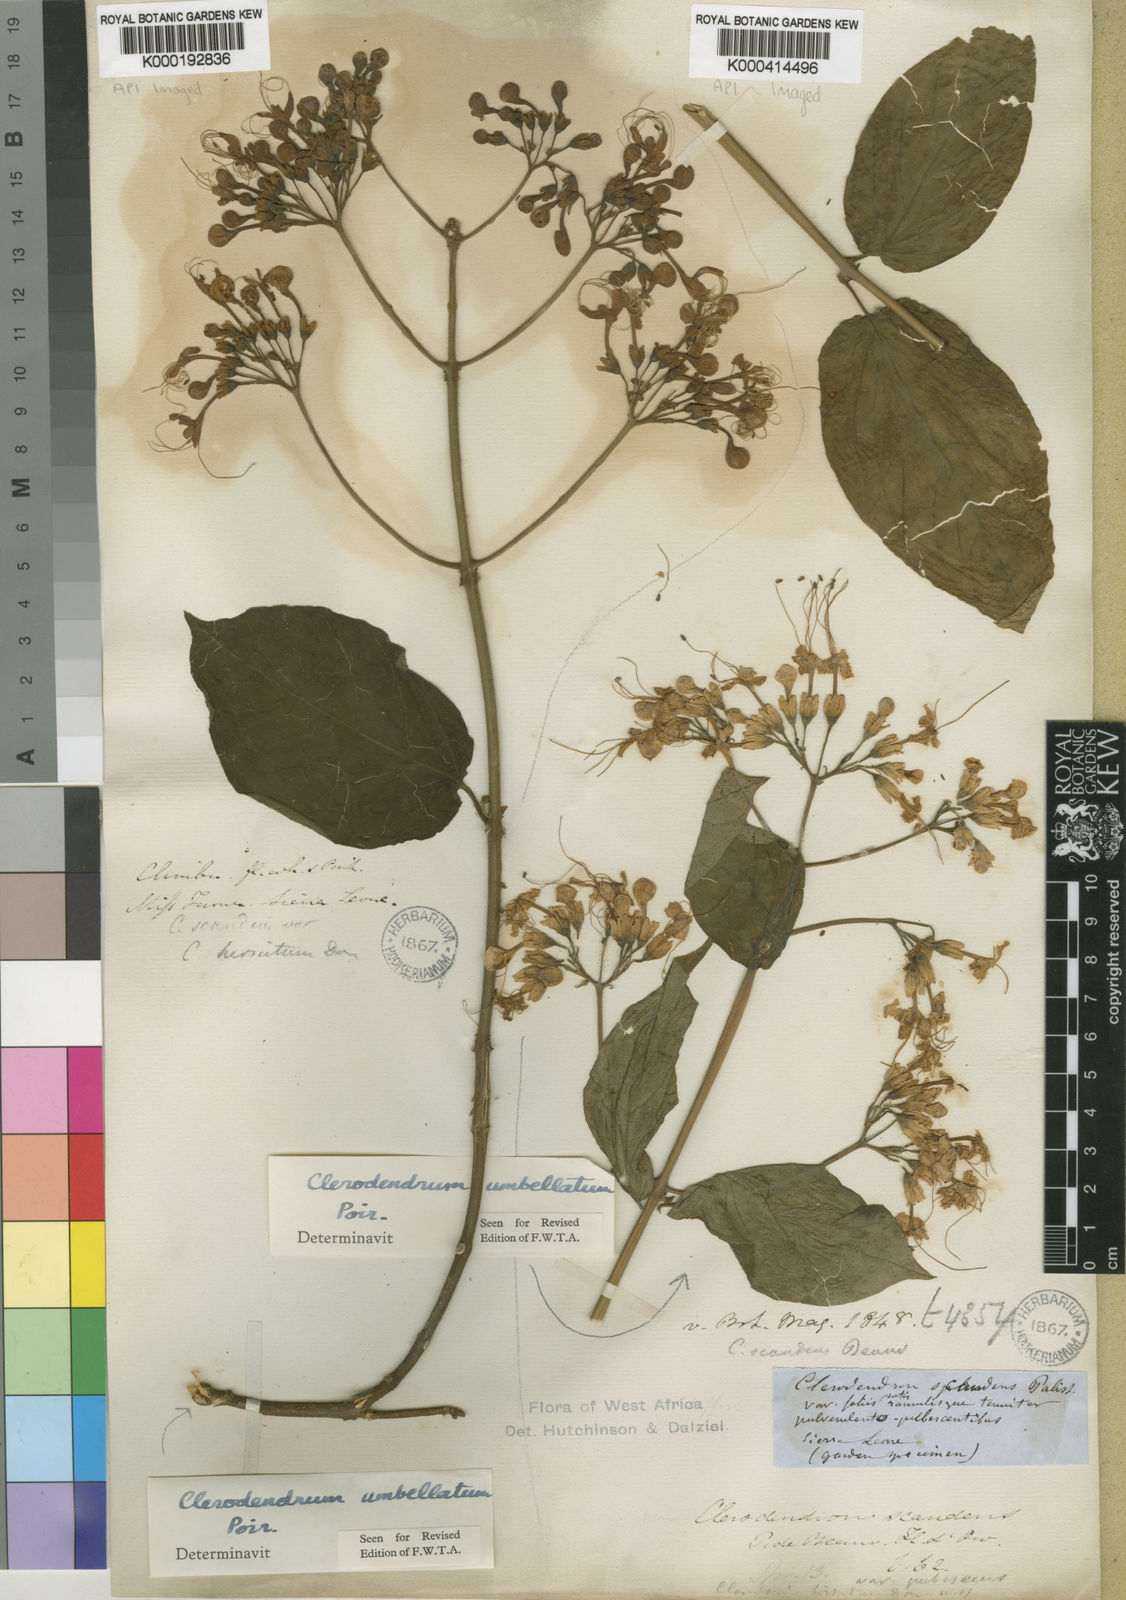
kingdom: Plantae
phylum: Tracheophyta
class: Magnoliopsida
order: Lamiales
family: Lamiaceae
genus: Clerodendrum
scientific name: Clerodendrum umbellatum
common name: Umbel clerodendrum
